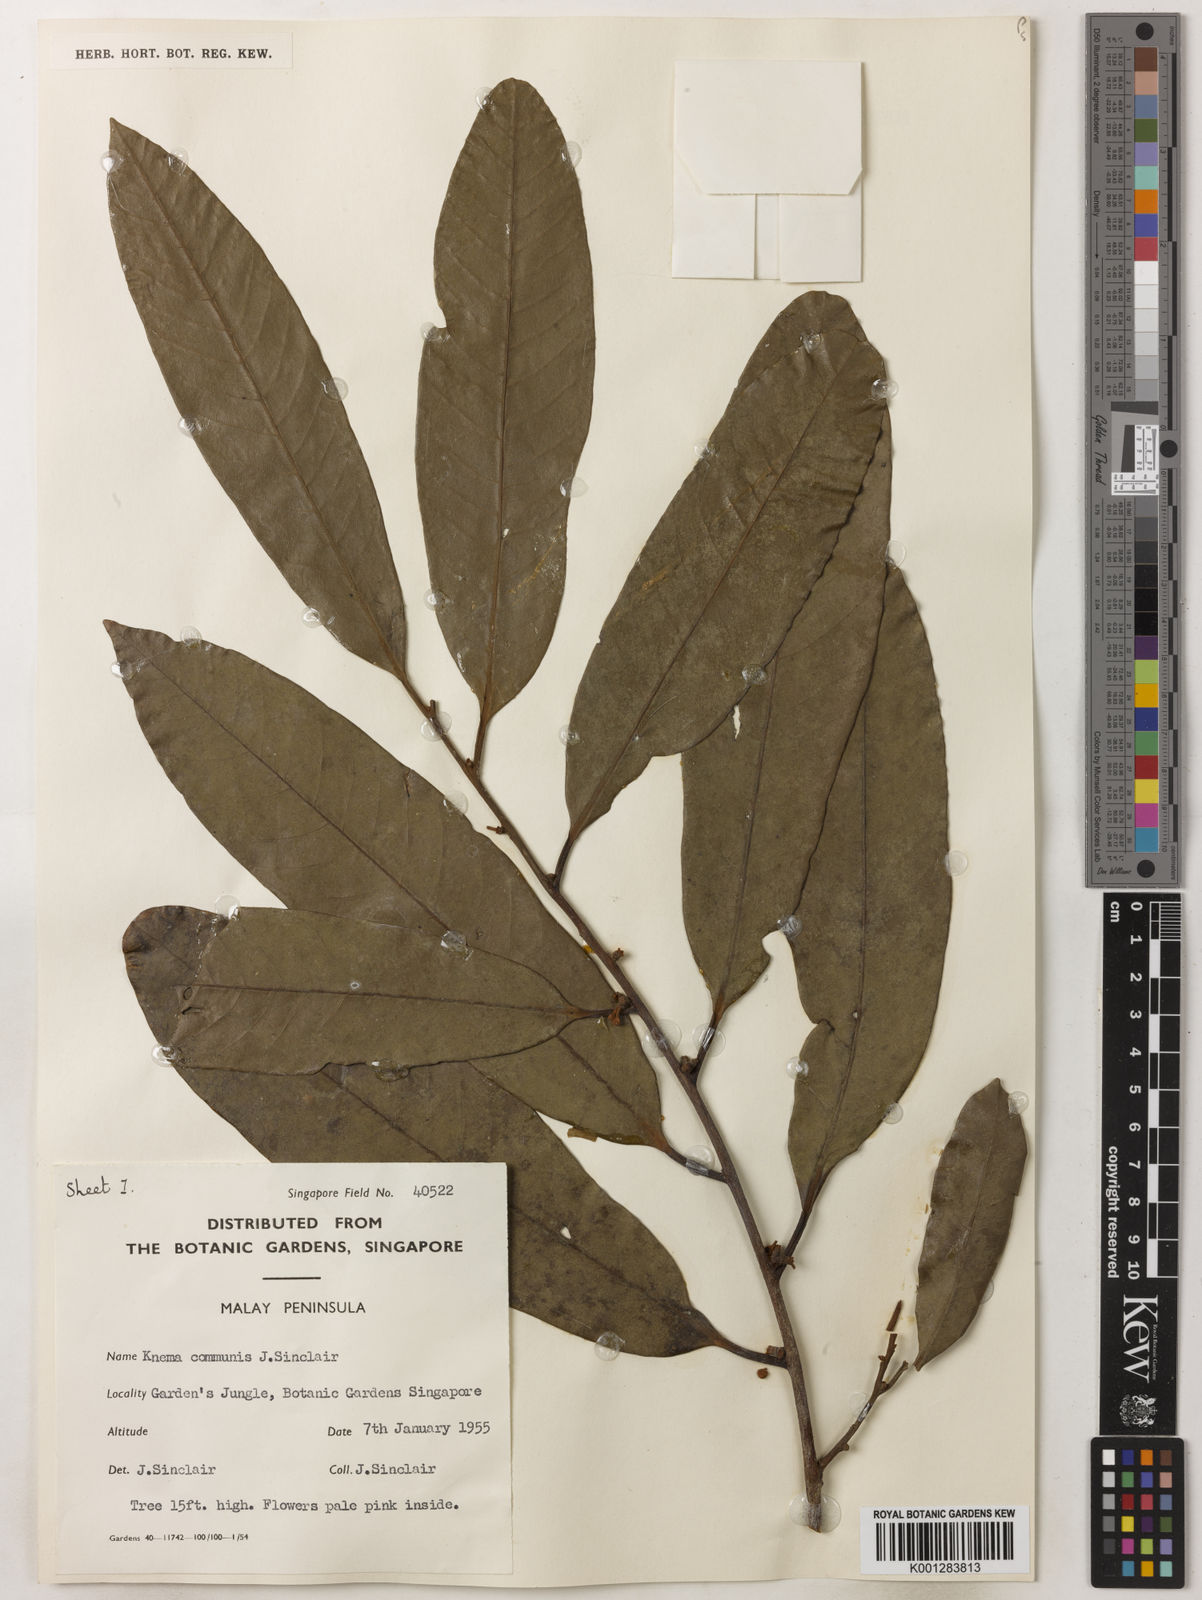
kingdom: Plantae
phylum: Tracheophyta
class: Magnoliopsida
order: Magnoliales
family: Myristicaceae
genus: Knema
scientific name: Knema communis
